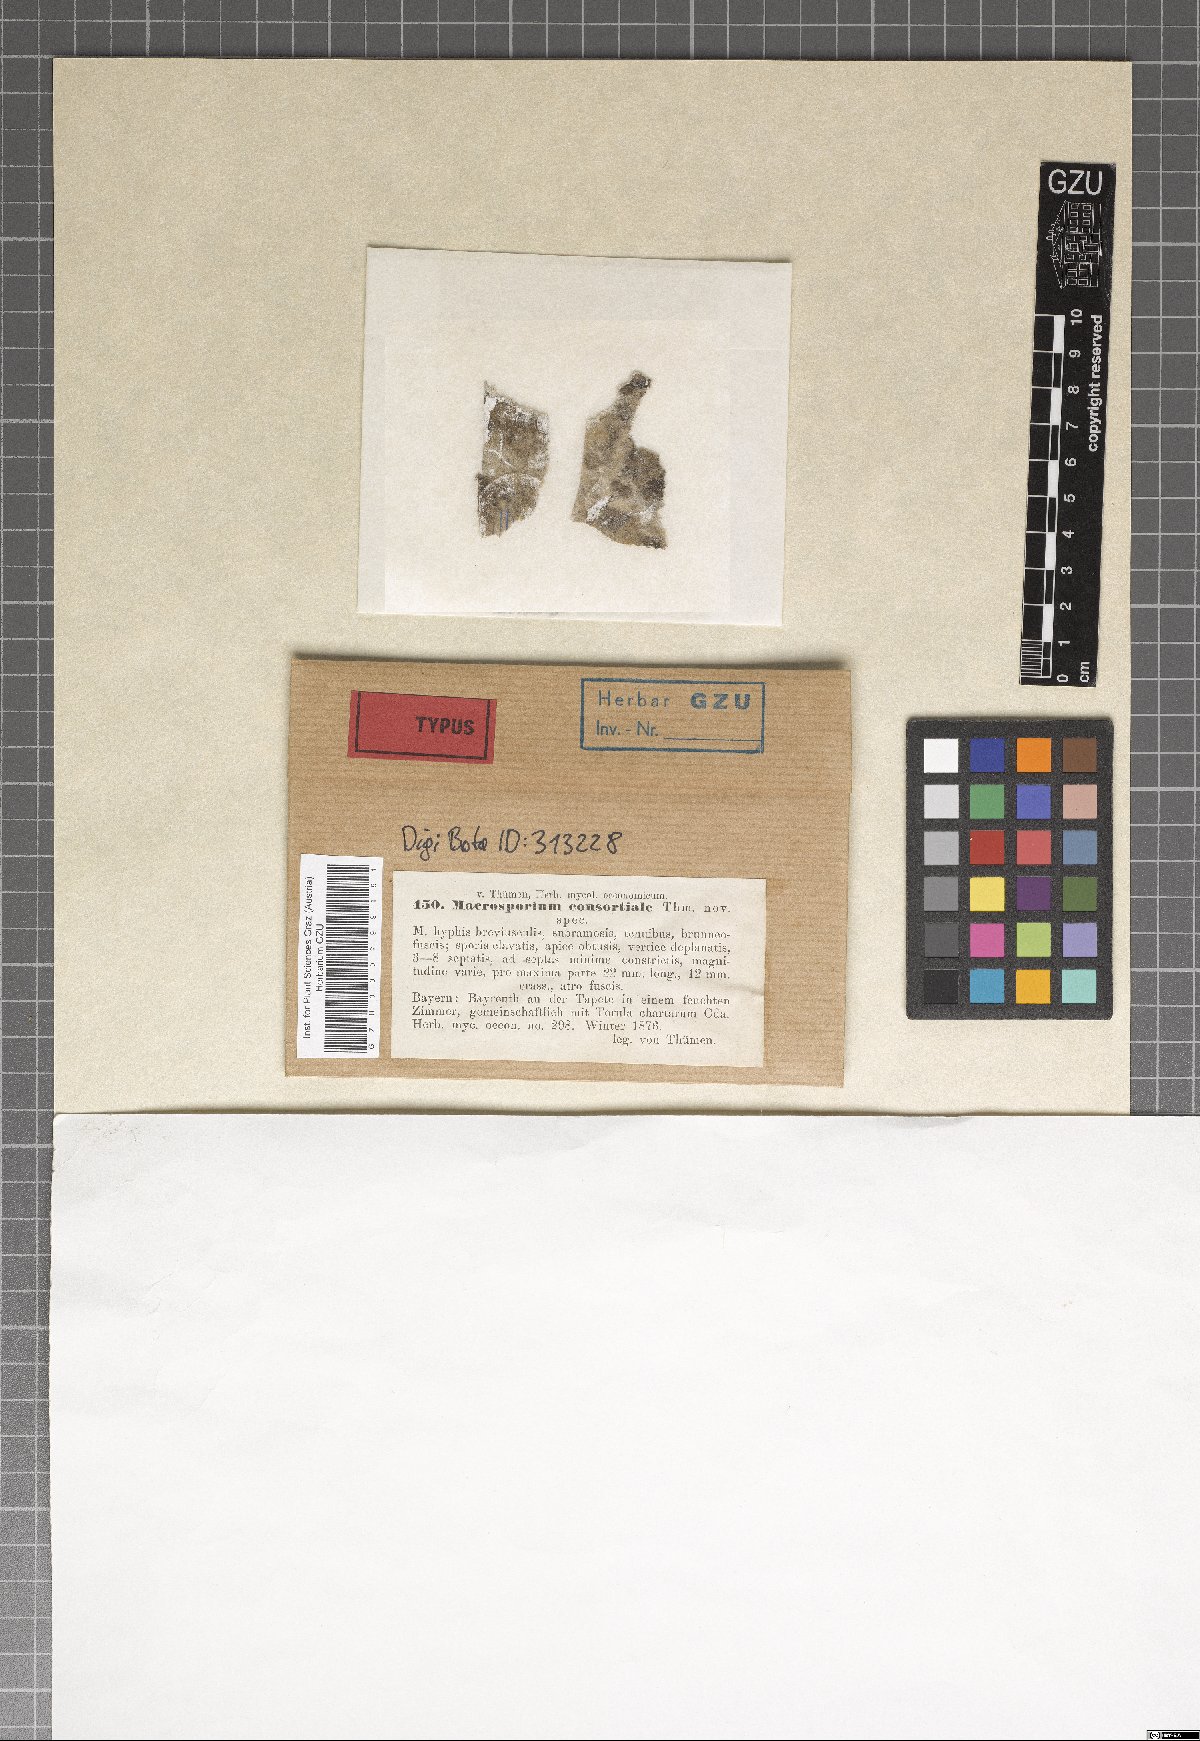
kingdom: Fungi
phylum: Ascomycota
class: Dothideomycetes
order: Pleosporales
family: Pleosporaceae
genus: Alternaria
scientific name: Alternaria consortialis
